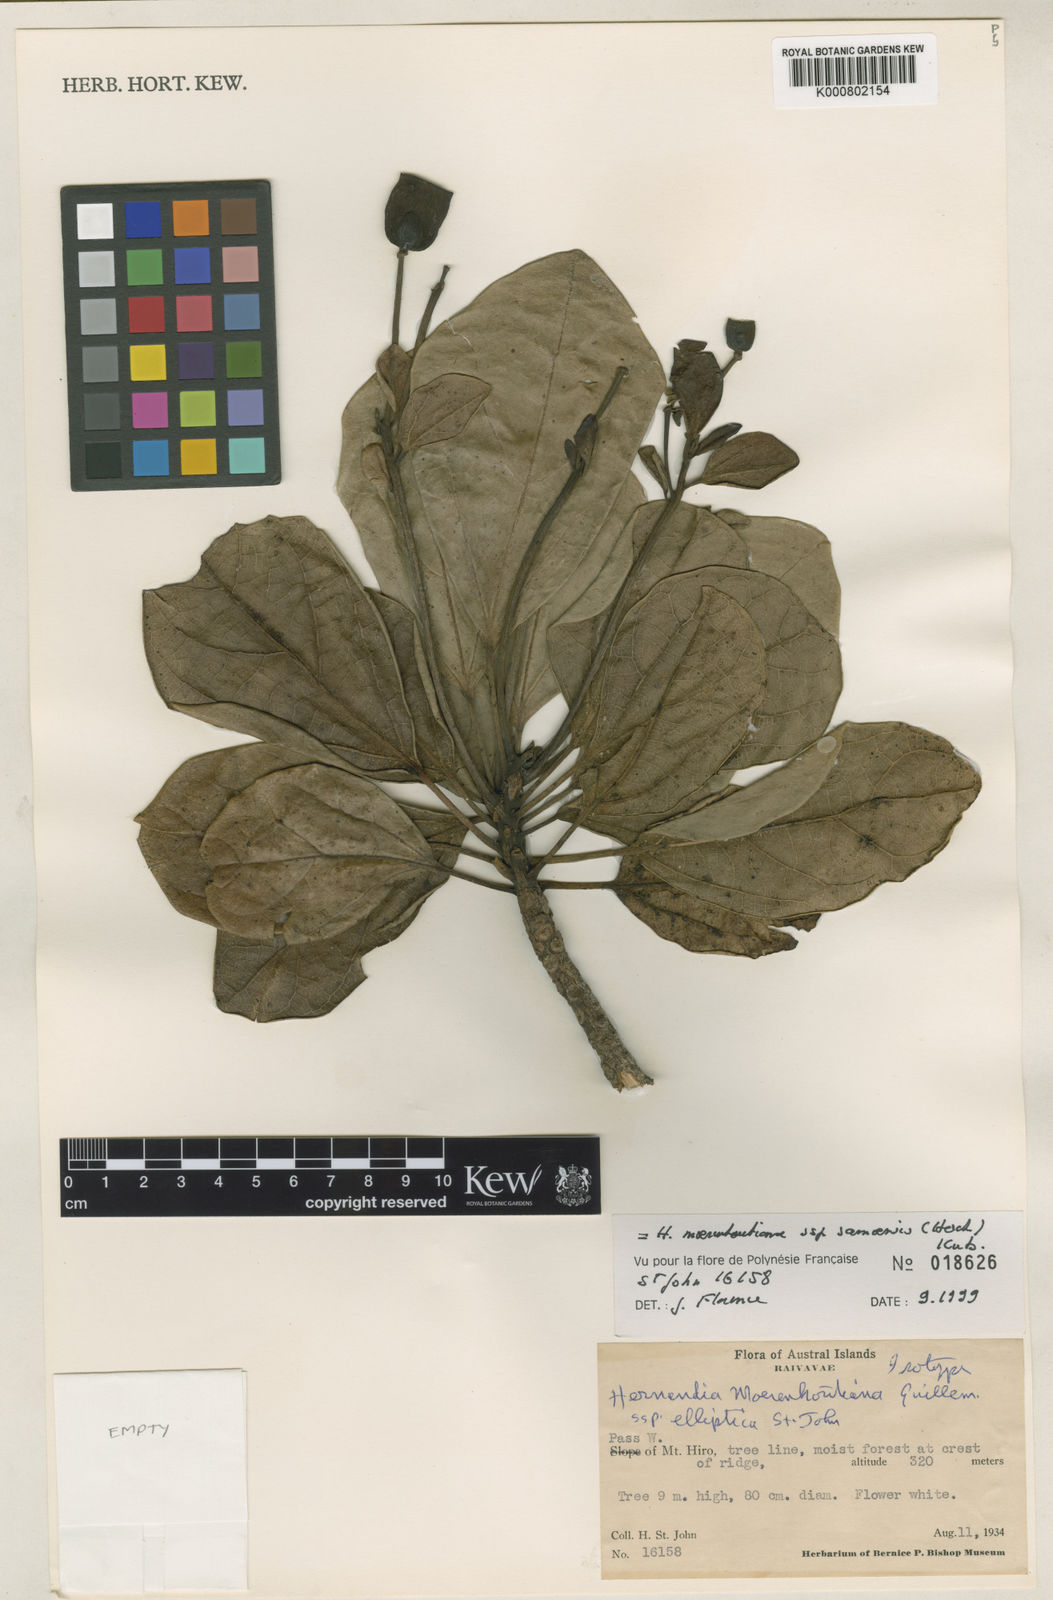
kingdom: Plantae
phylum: Tracheophyta
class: Magnoliopsida
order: Laurales
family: Hernandiaceae
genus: Hernandia
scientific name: Hernandia moerenhoutiana
